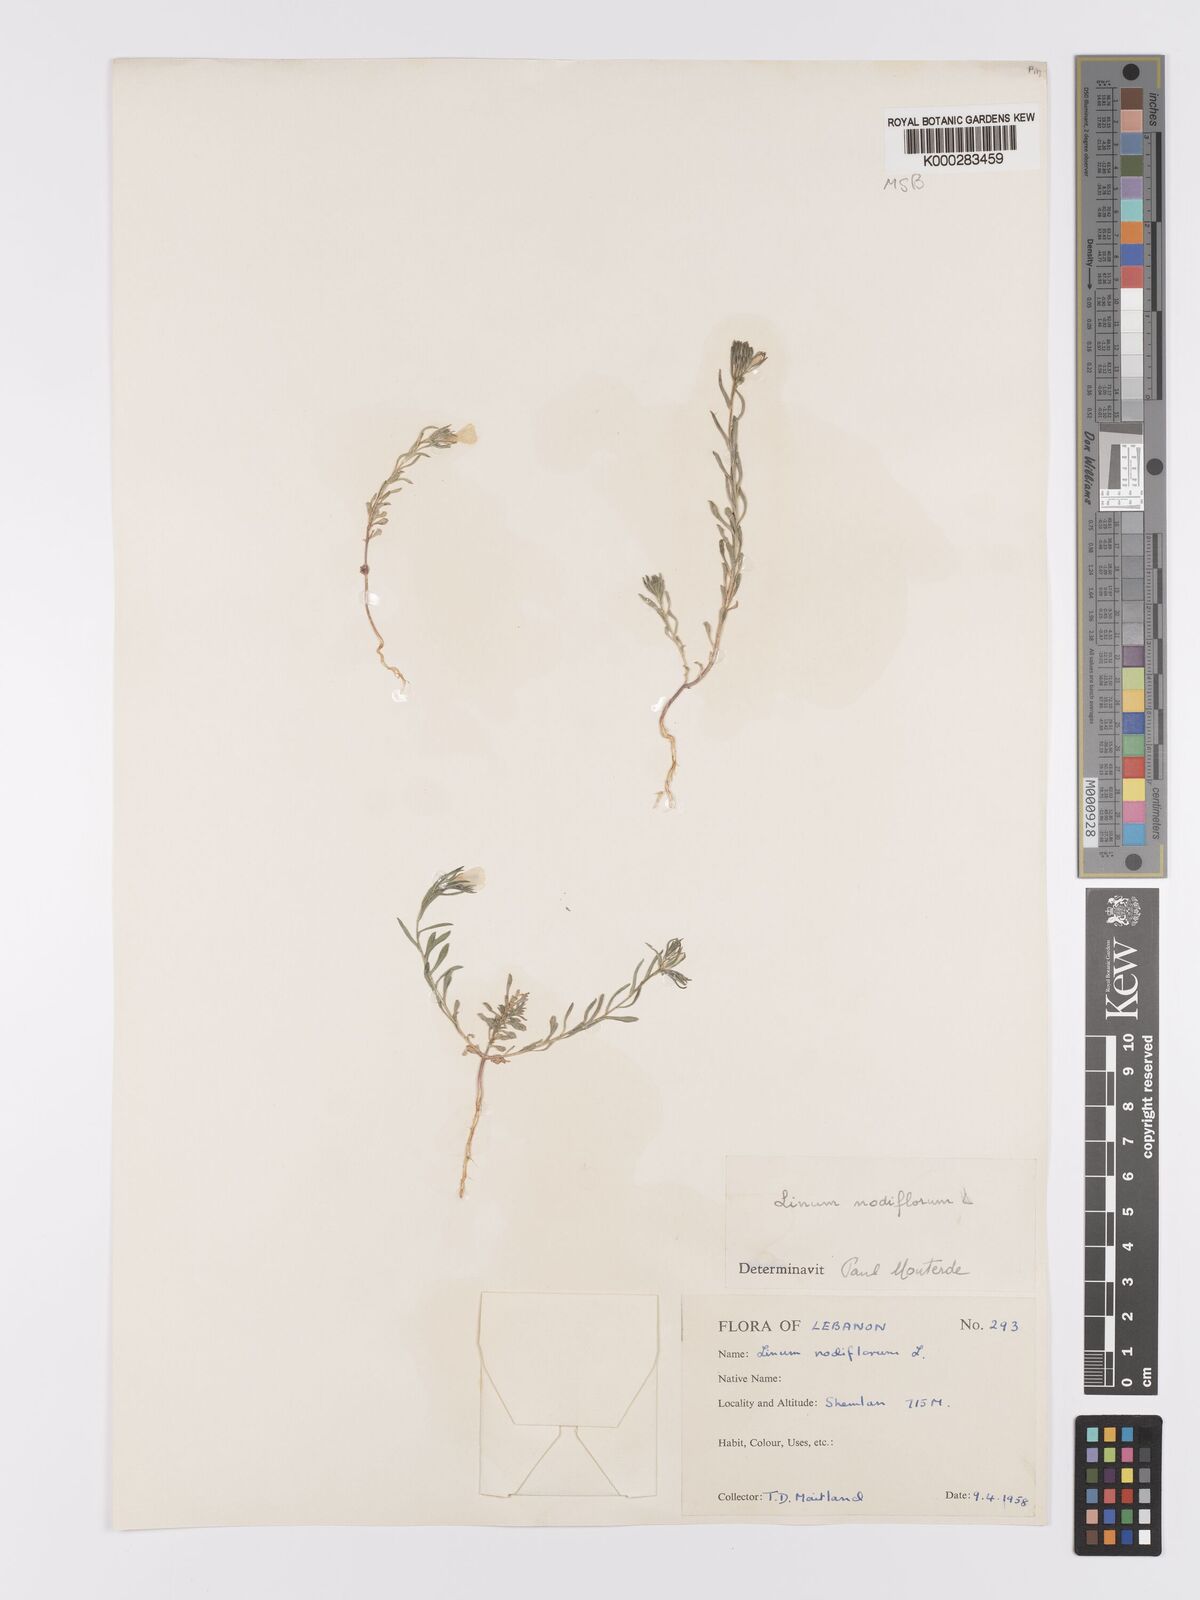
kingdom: Plantae
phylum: Tracheophyta
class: Magnoliopsida
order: Malpighiales
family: Linaceae
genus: Linum
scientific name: Linum nodiflorum
